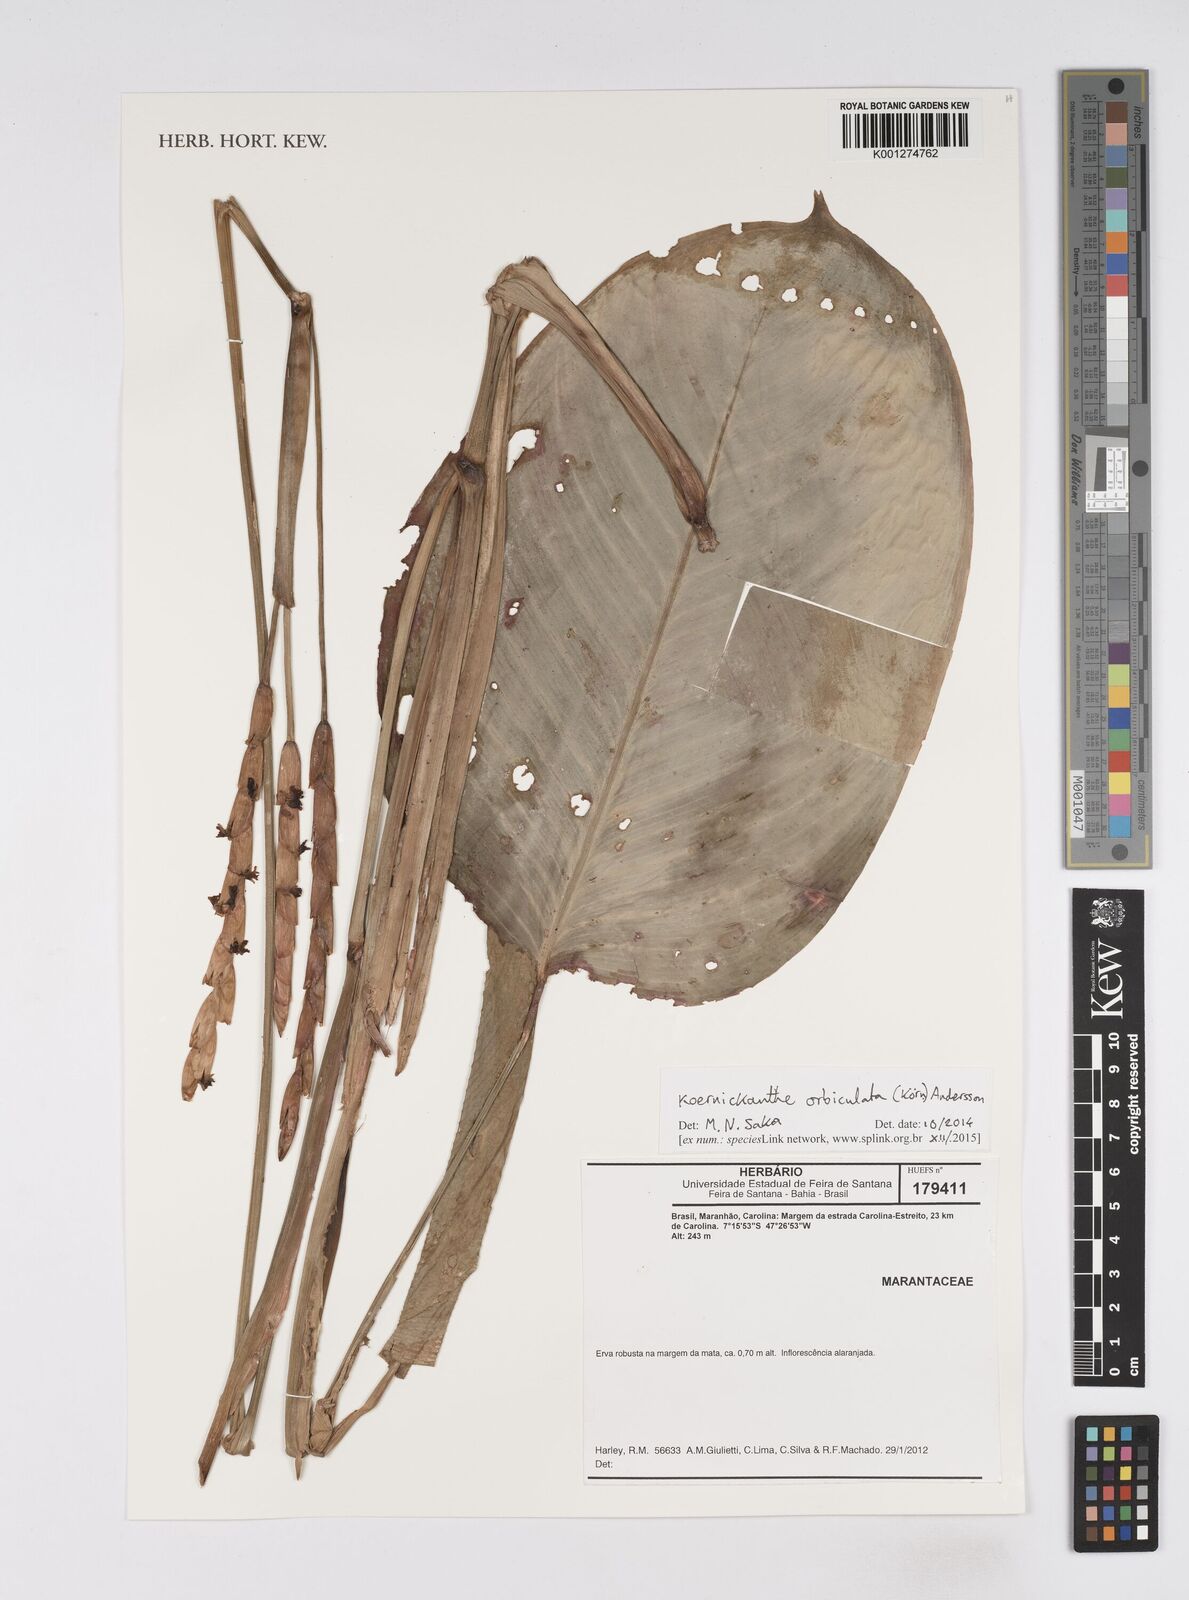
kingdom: Plantae
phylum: Tracheophyta
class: Liliopsida
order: Zingiberales
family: Marantaceae
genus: Koernickanthe
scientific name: Koernickanthe orbiculata
